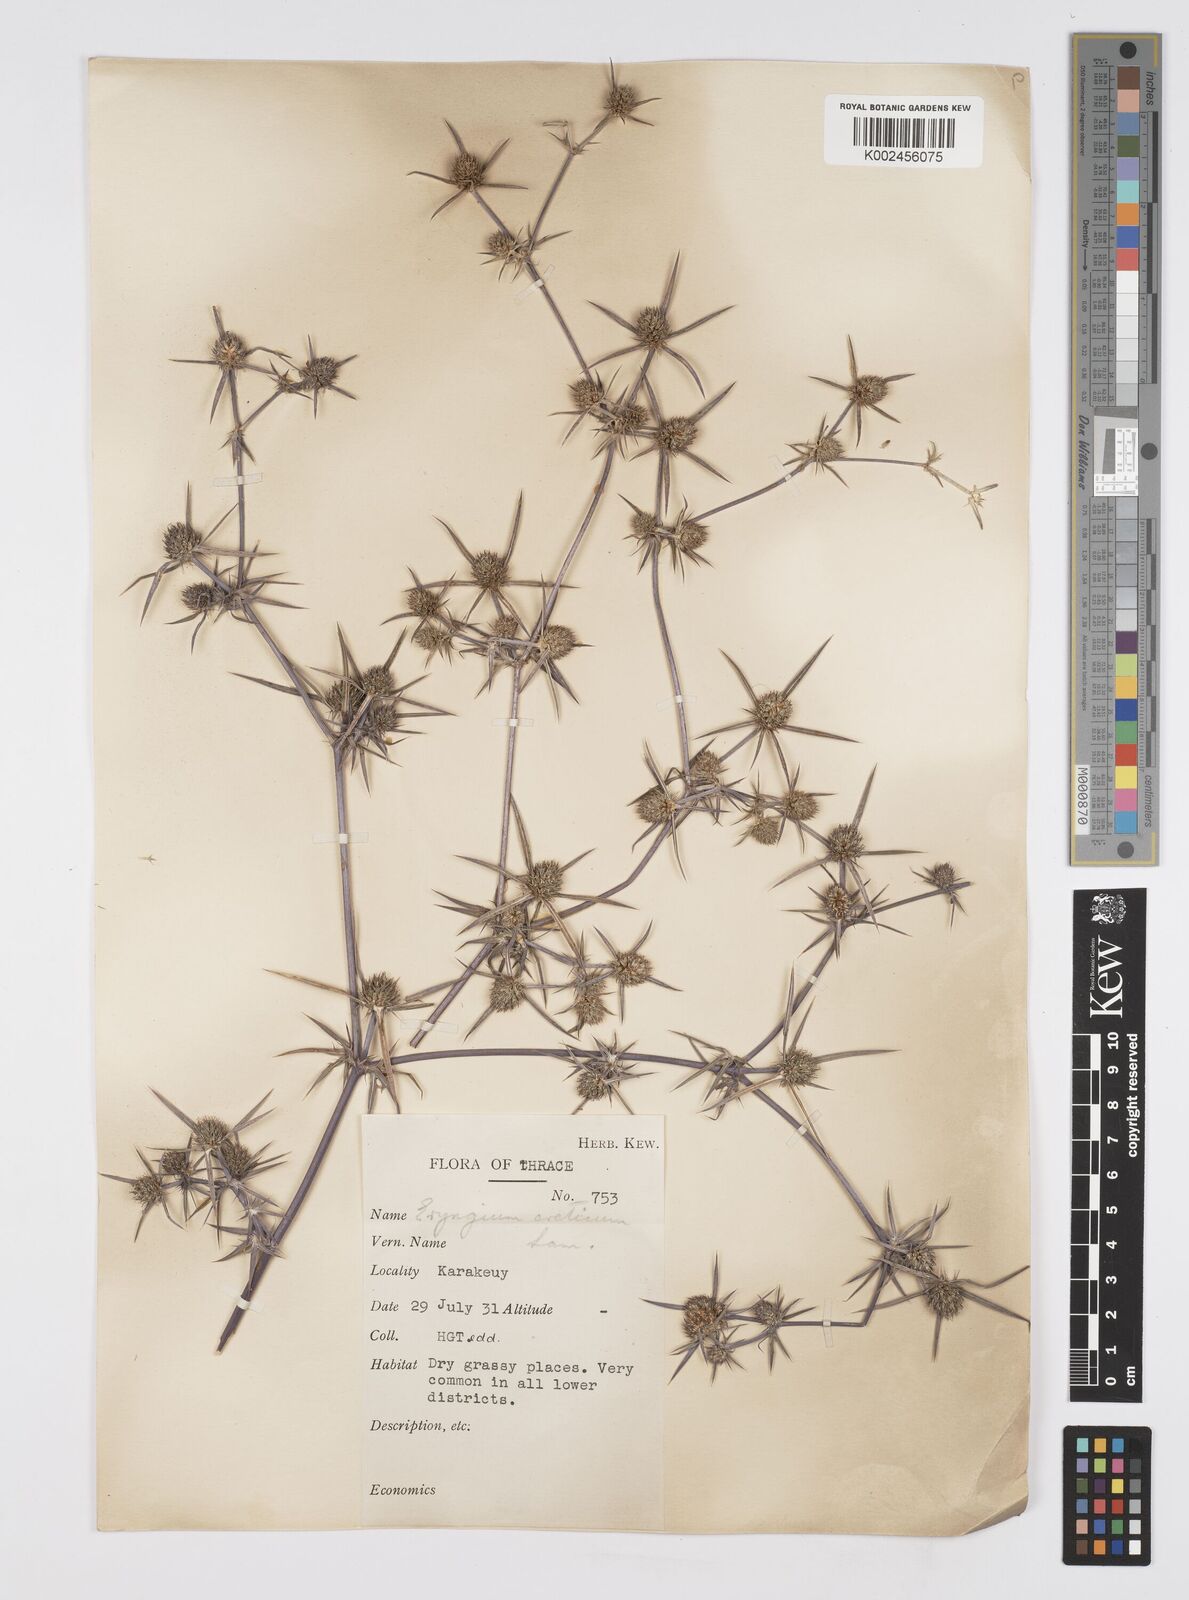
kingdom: Plantae
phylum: Tracheophyta
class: Magnoliopsida
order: Apiales
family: Apiaceae
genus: Eryngium
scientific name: Eryngium creticum
